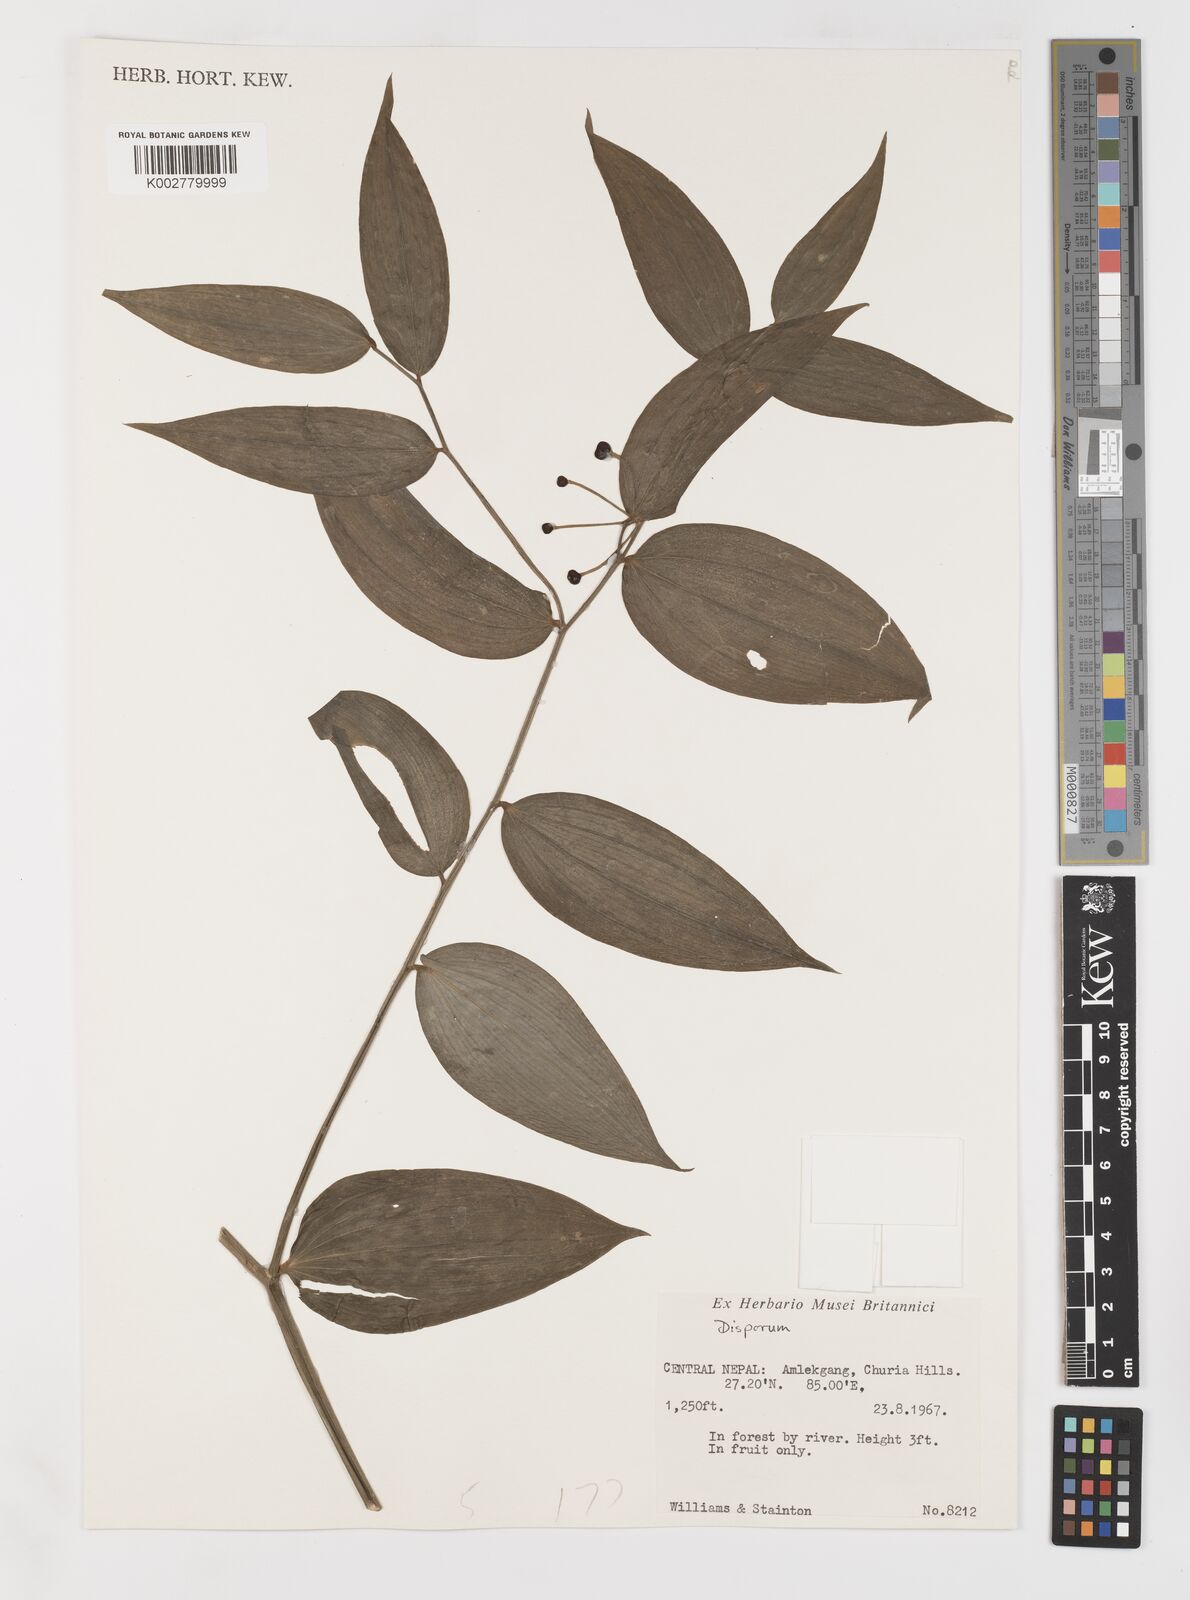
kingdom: Plantae
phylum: Tracheophyta
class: Liliopsida
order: Liliales
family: Colchicaceae
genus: Disporum
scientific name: Disporum
